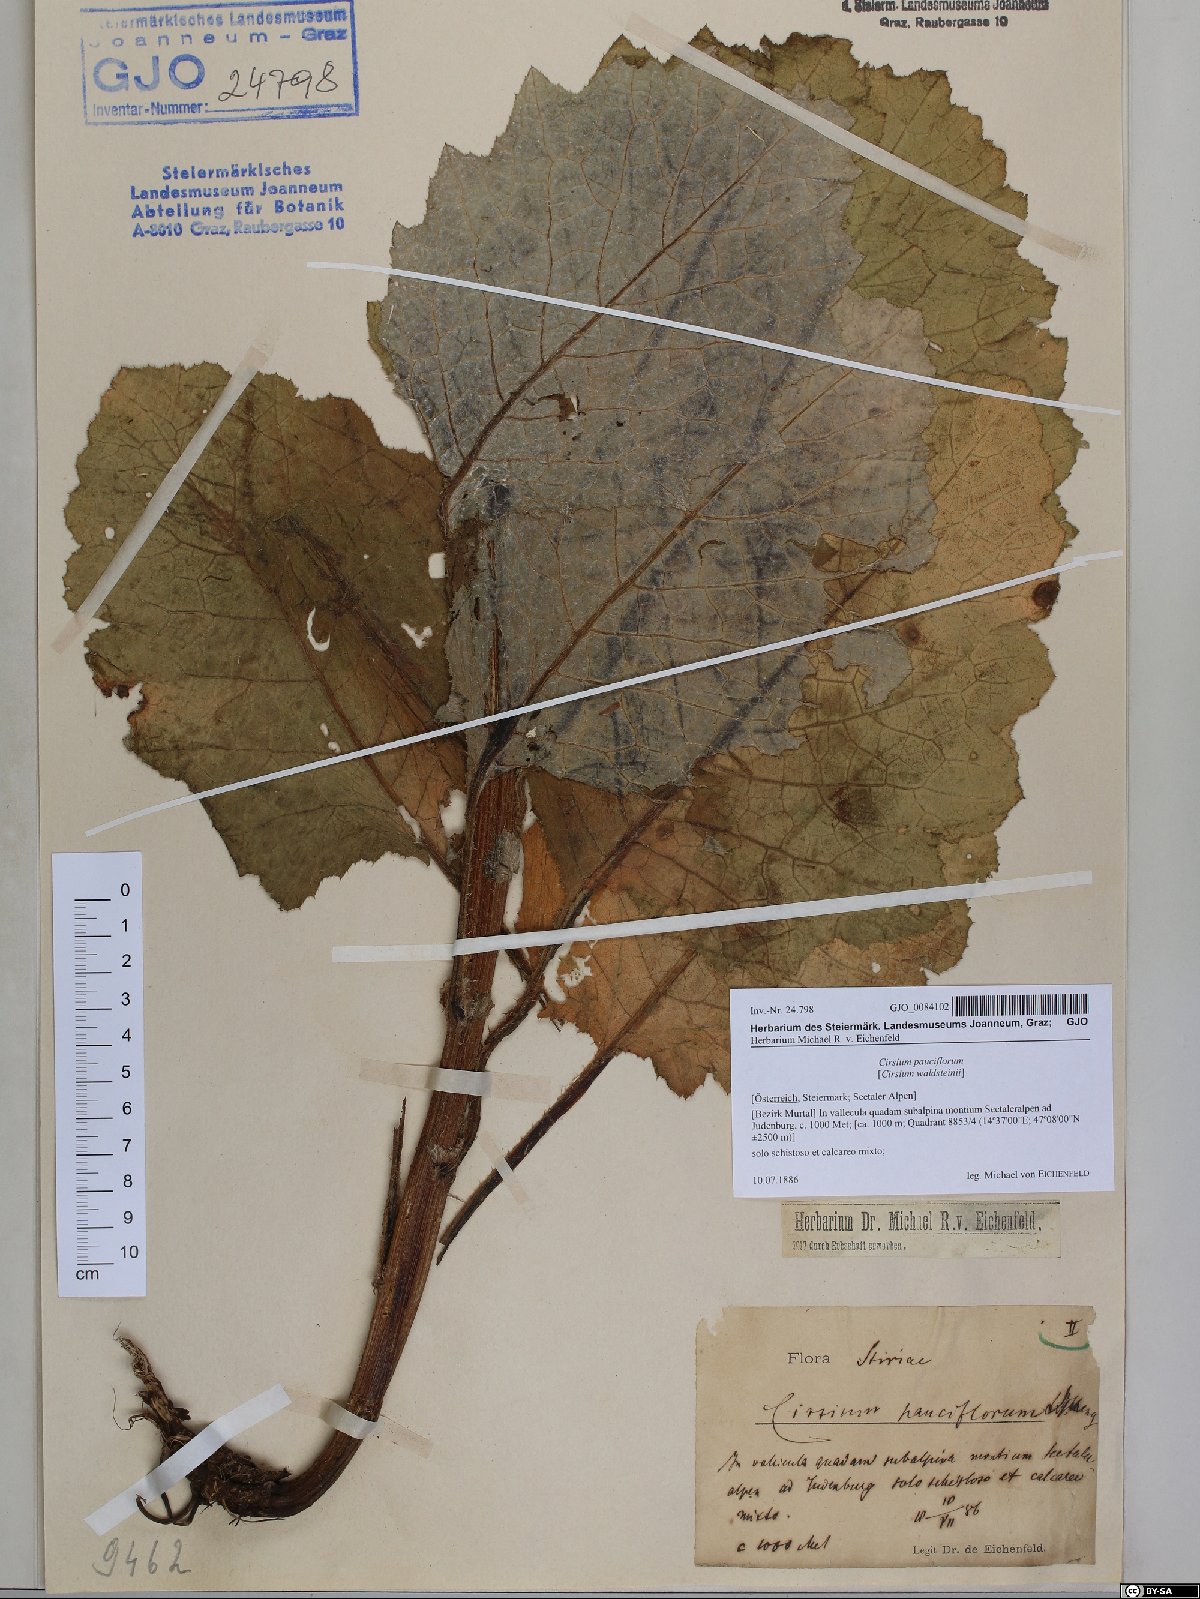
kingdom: Plantae
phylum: Tracheophyta
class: Magnoliopsida
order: Asterales
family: Asteraceae
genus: Cirsium
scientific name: Cirsium greimleri
